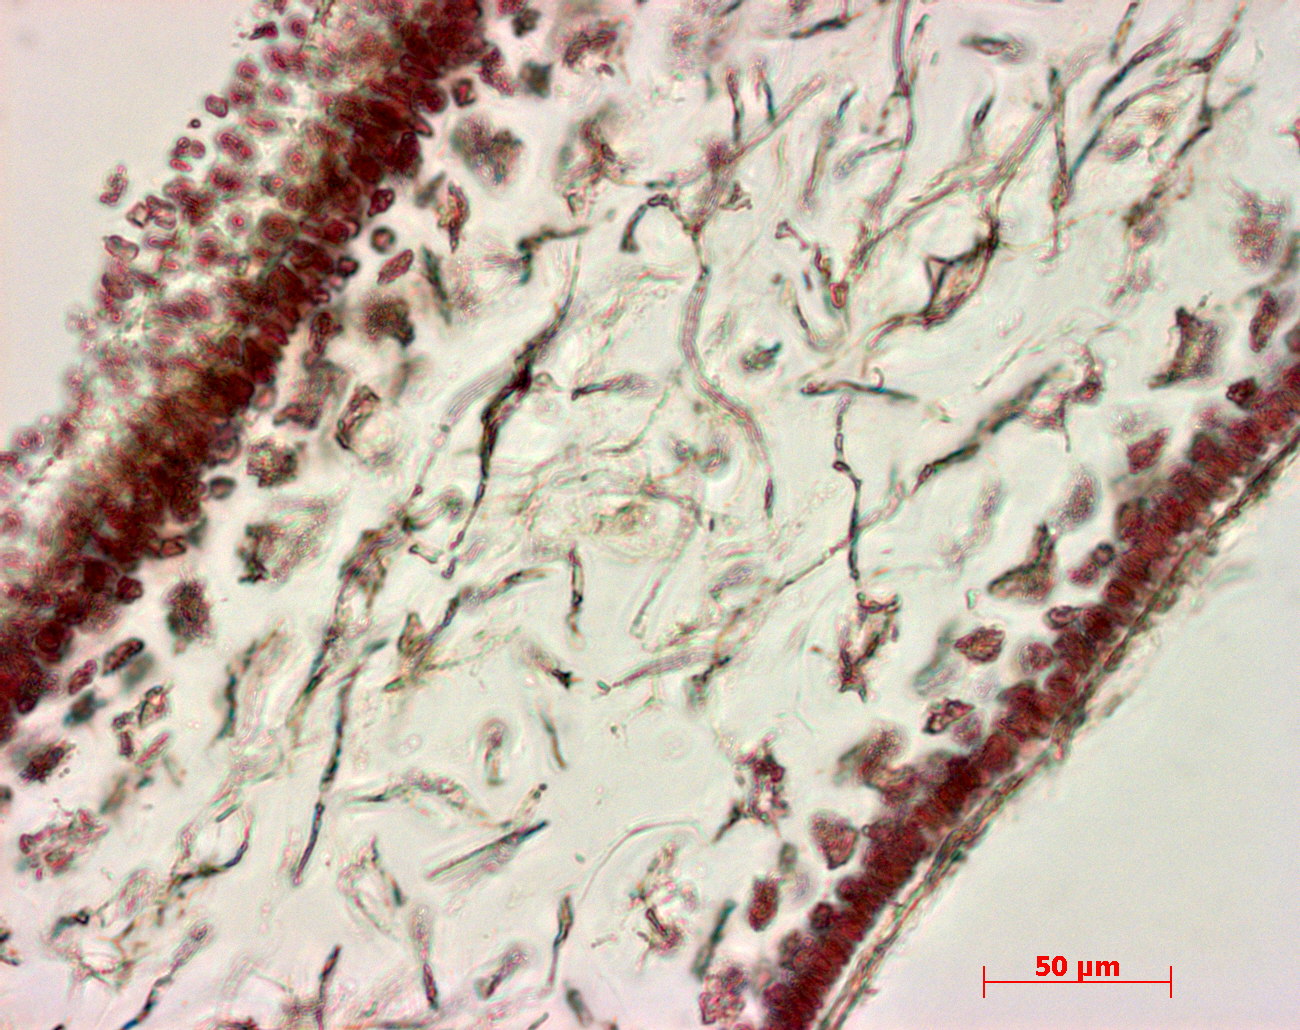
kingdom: Plantae
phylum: Rhodophyta
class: Florideophyceae
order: Gigartinales
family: Kallymeniaceae
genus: Psaromenia
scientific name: Psaromenia berggrenii
